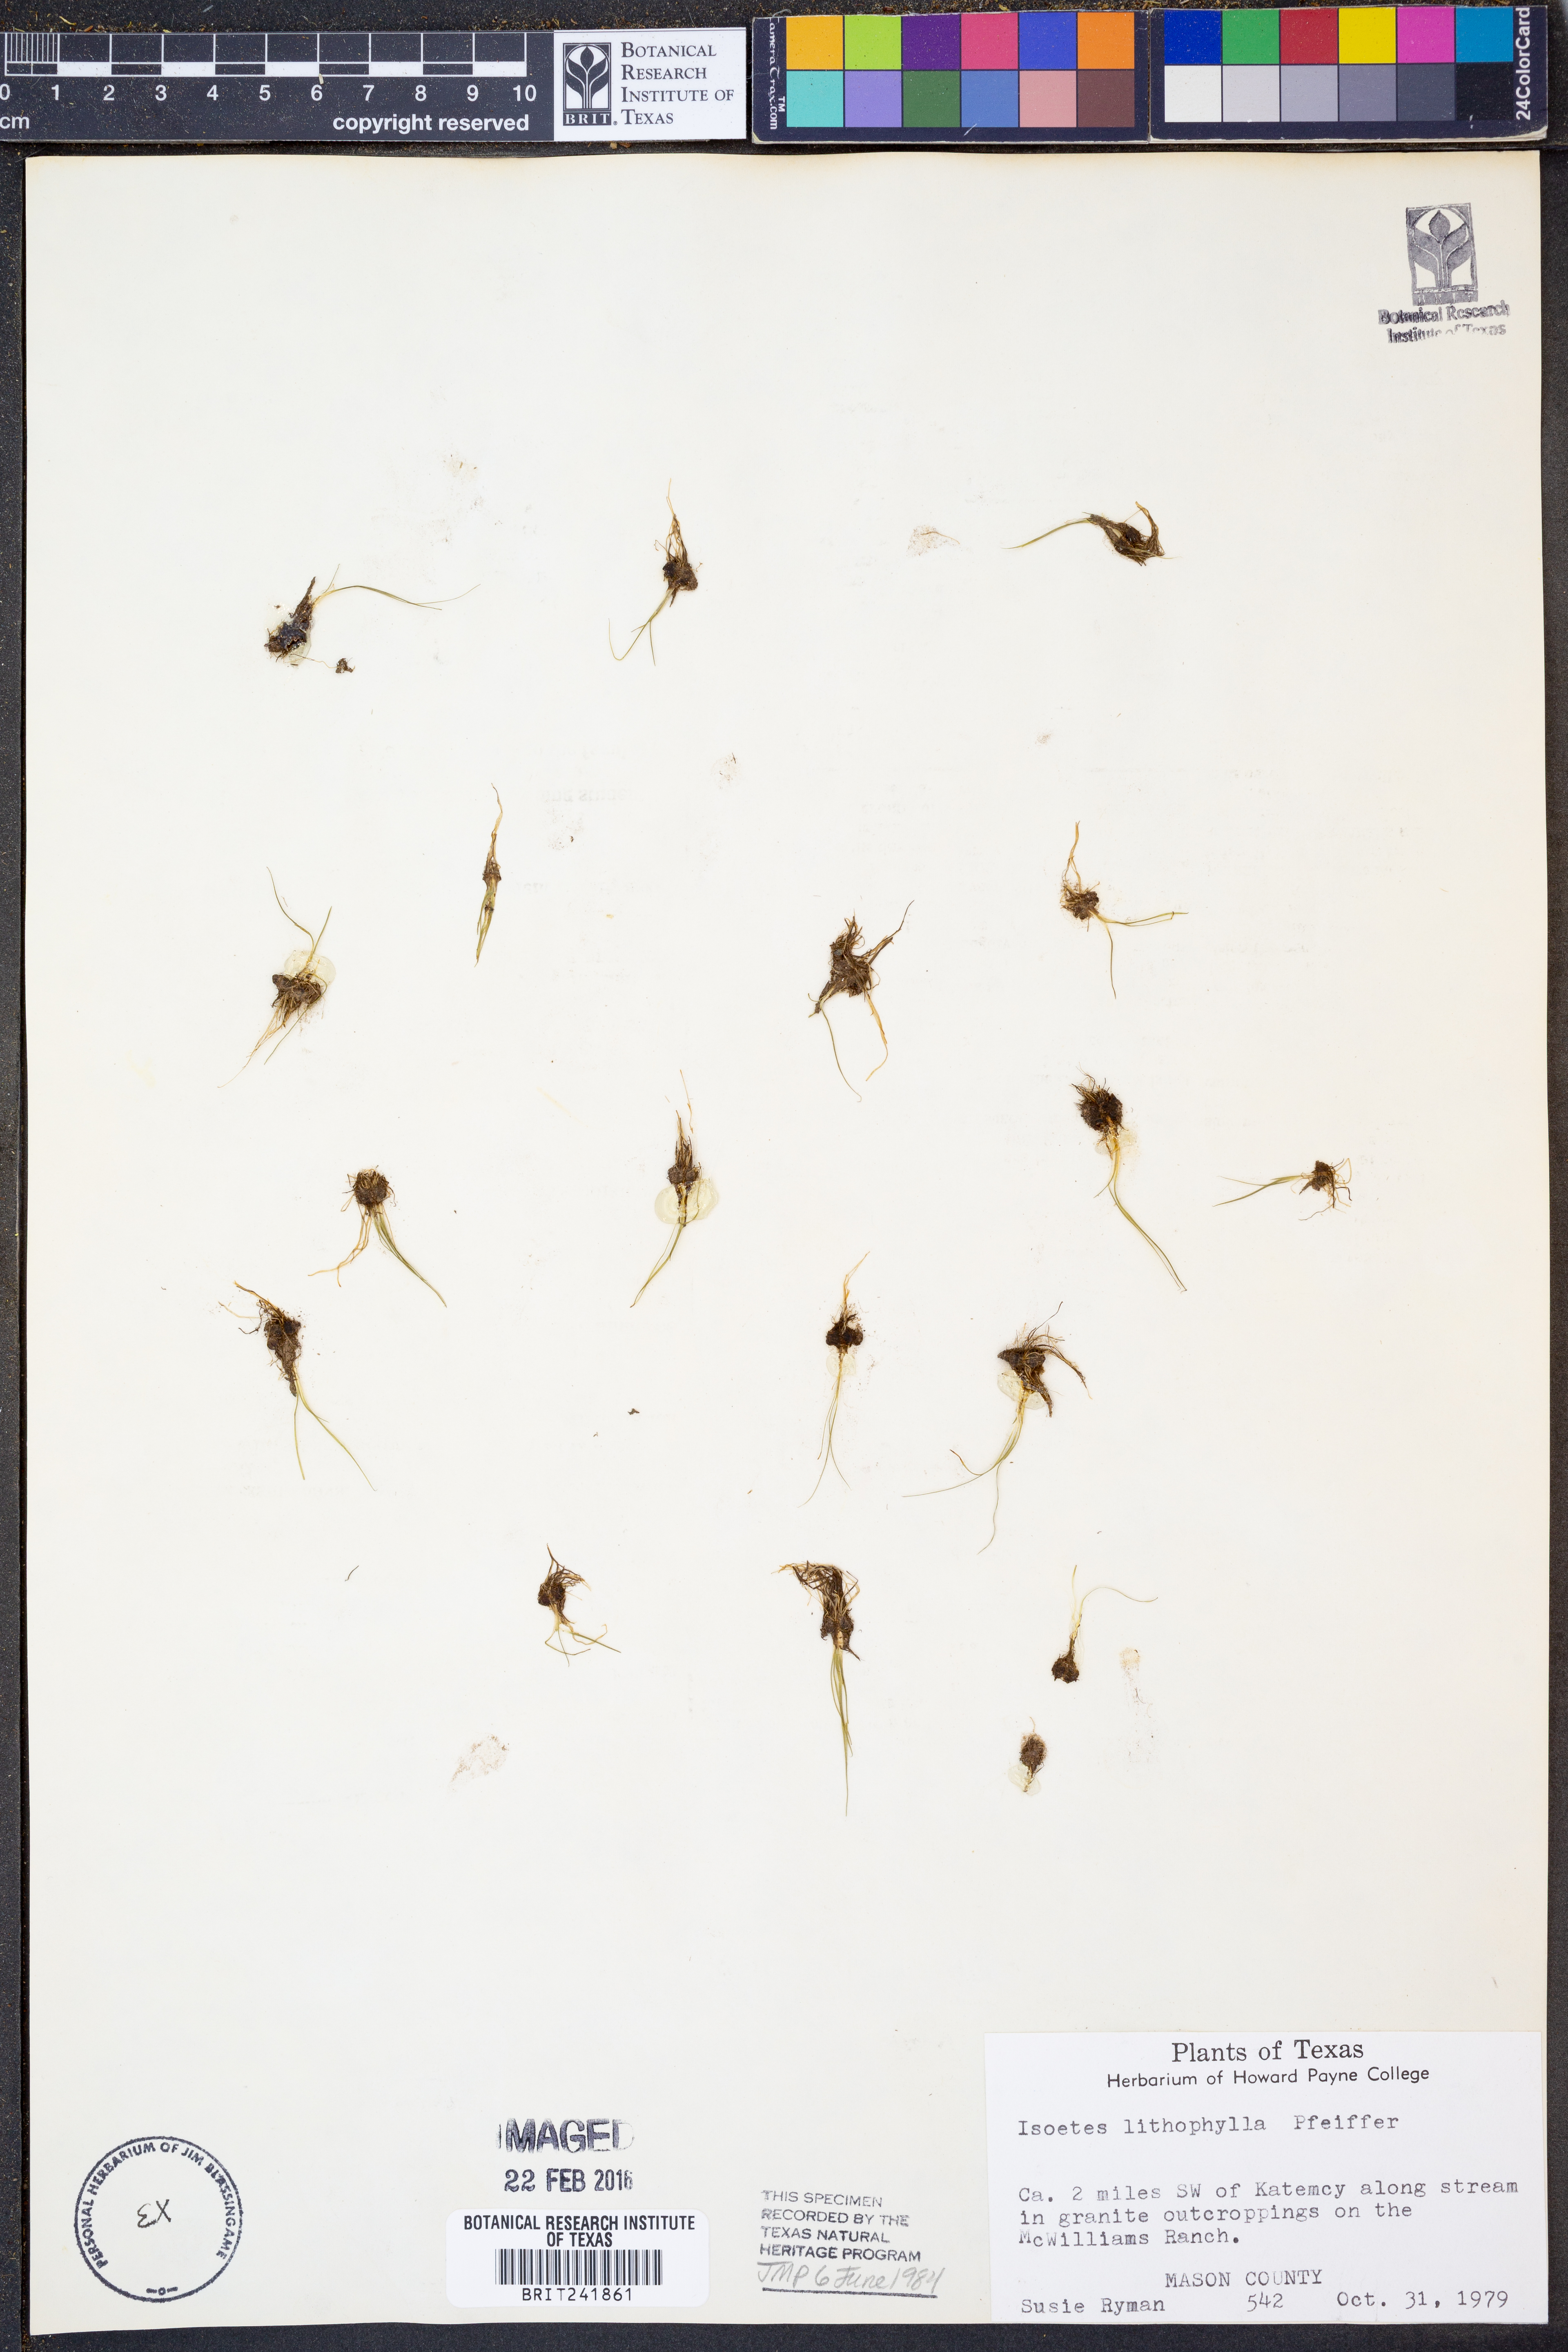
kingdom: Plantae
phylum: Tracheophyta
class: Lycopodiopsida
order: Isoetales
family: Isoetaceae
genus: Isoetes
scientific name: Isoetes lithophila
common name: Rock quillwort
